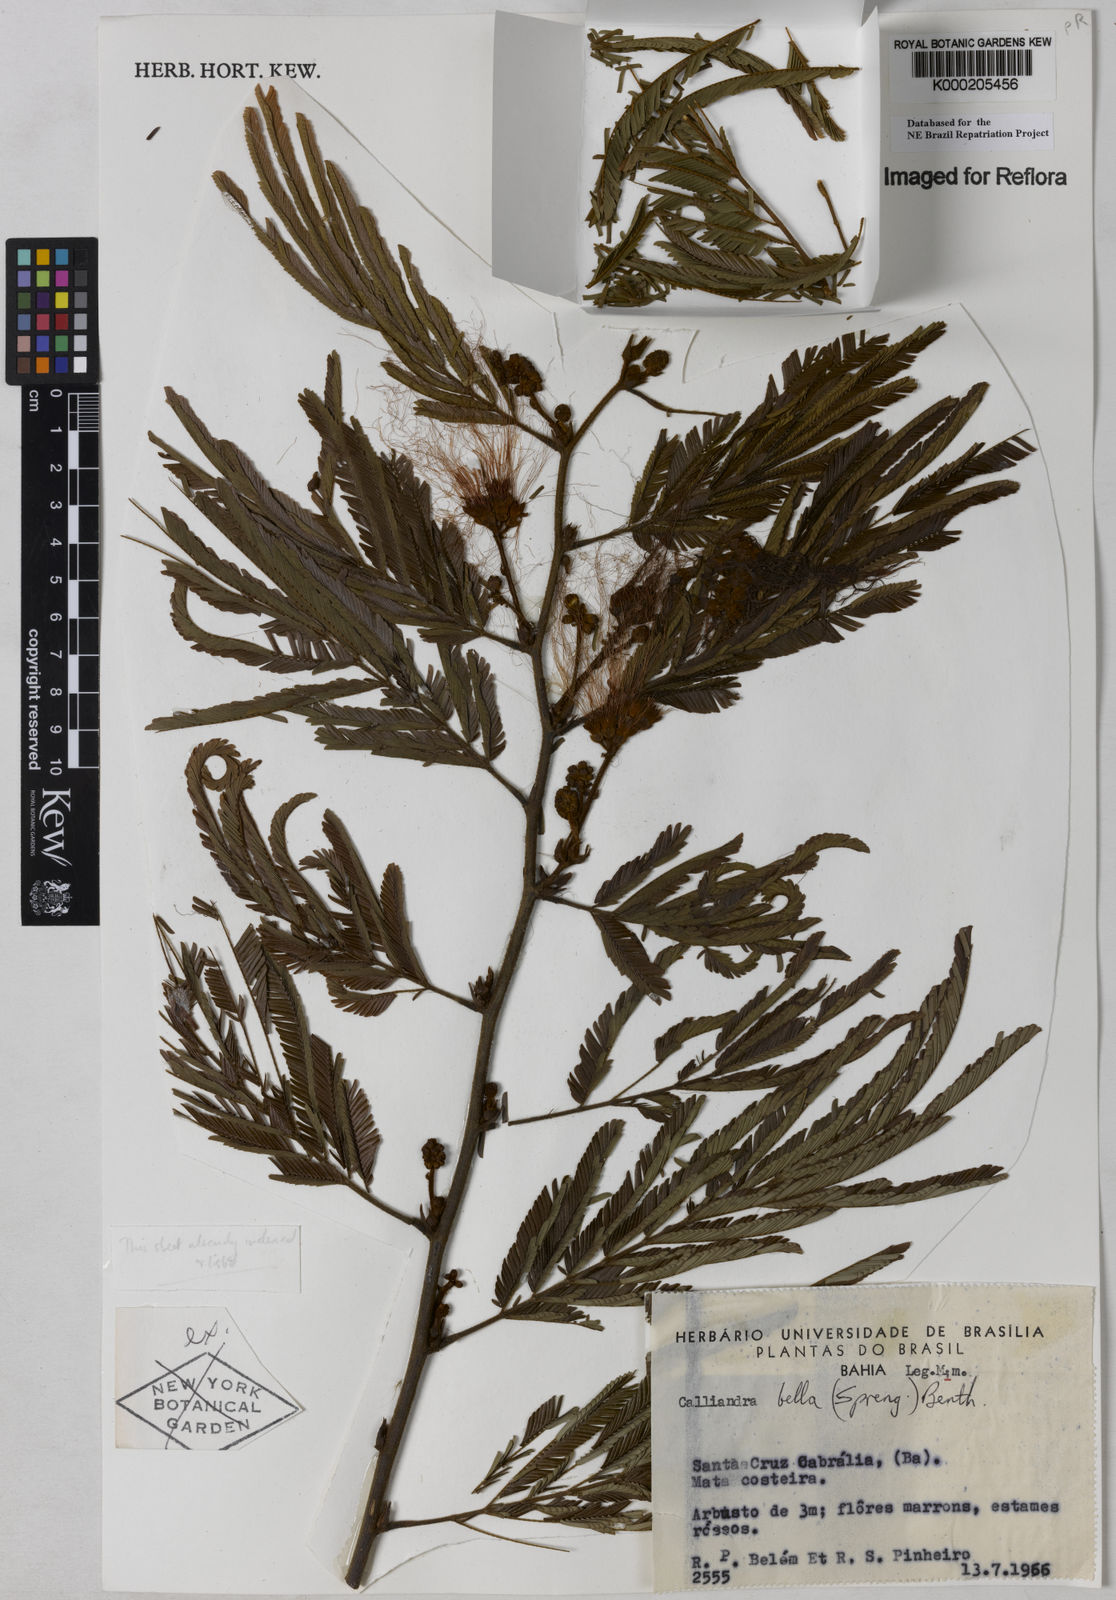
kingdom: Plantae
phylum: Tracheophyta
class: Magnoliopsida
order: Fabales
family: Fabaceae
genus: Calliandra
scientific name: Calliandra bella
